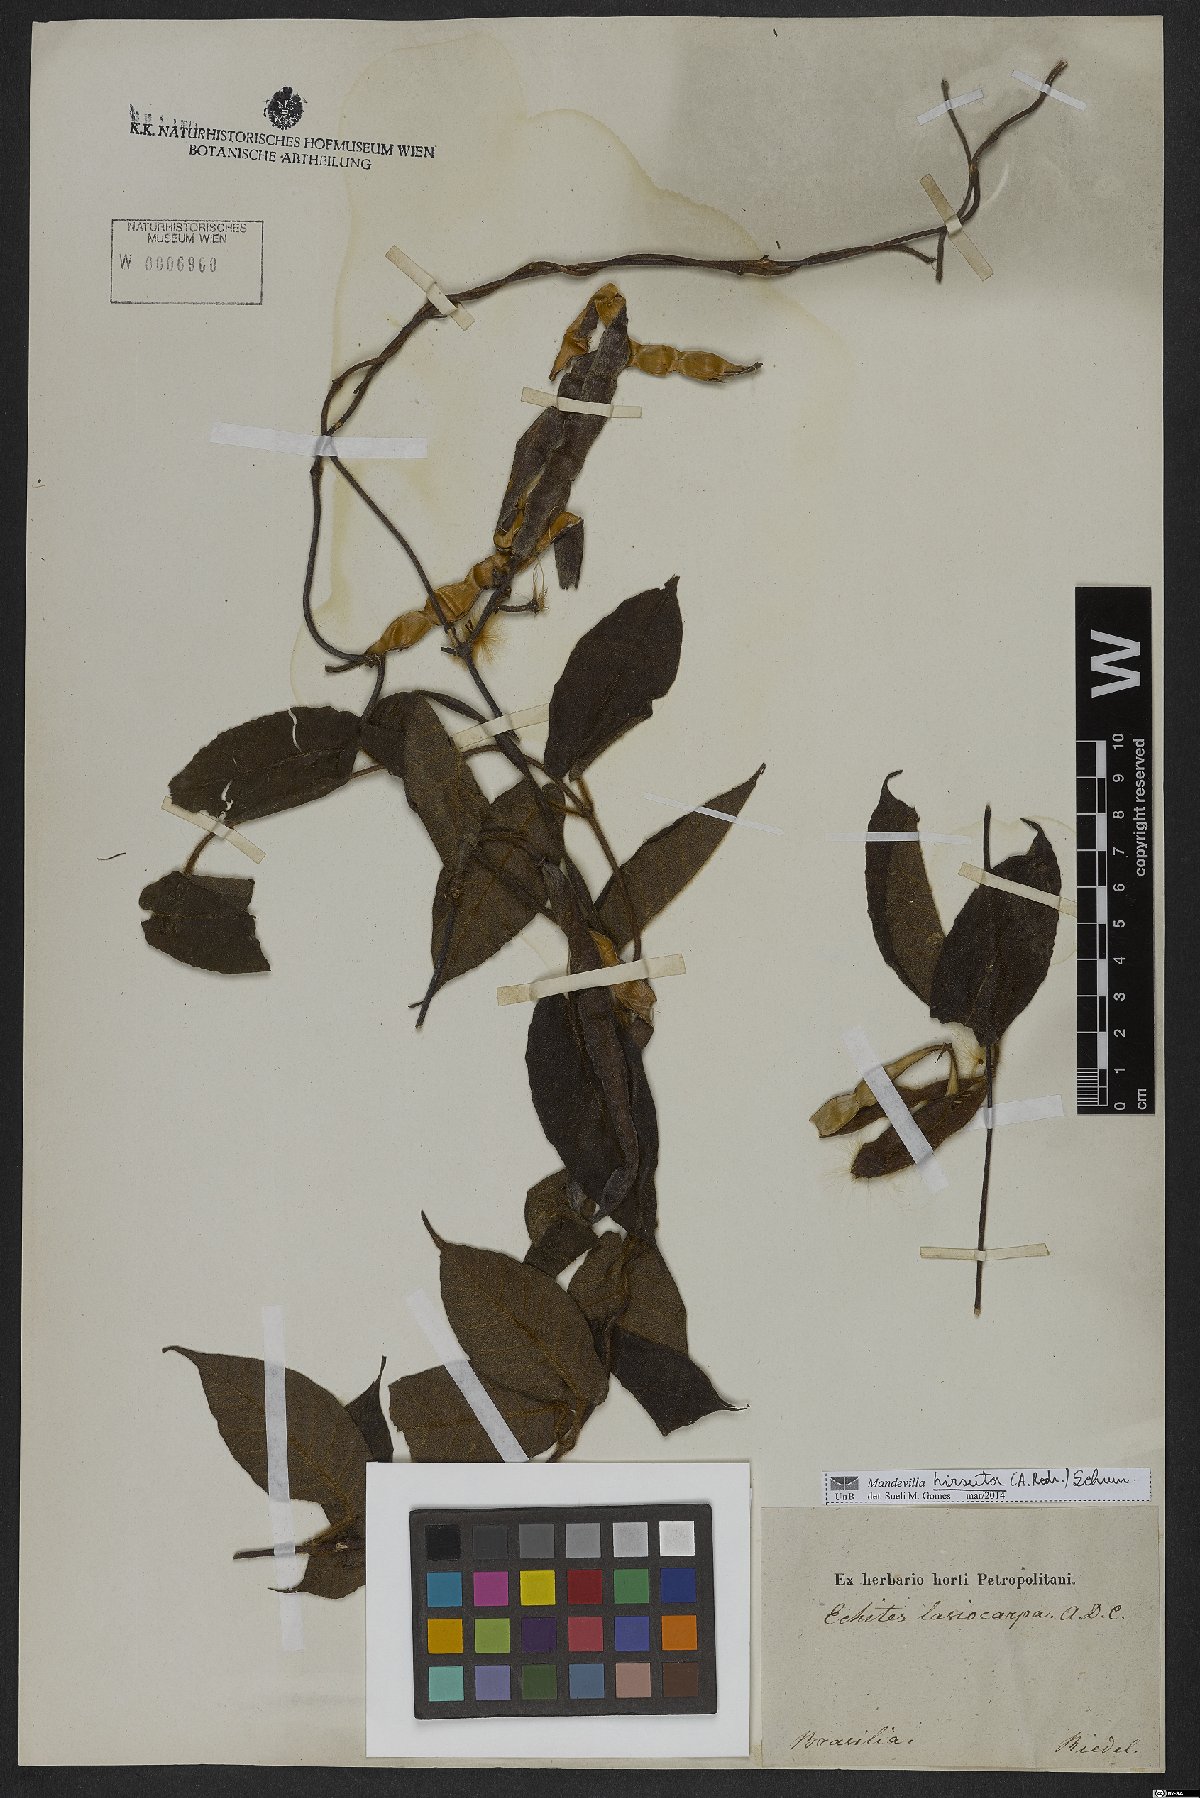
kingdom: Plantae
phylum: Tracheophyta
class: Magnoliopsida
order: Gentianales
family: Apocynaceae
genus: Mandevilla
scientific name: Mandevilla hirsuta
